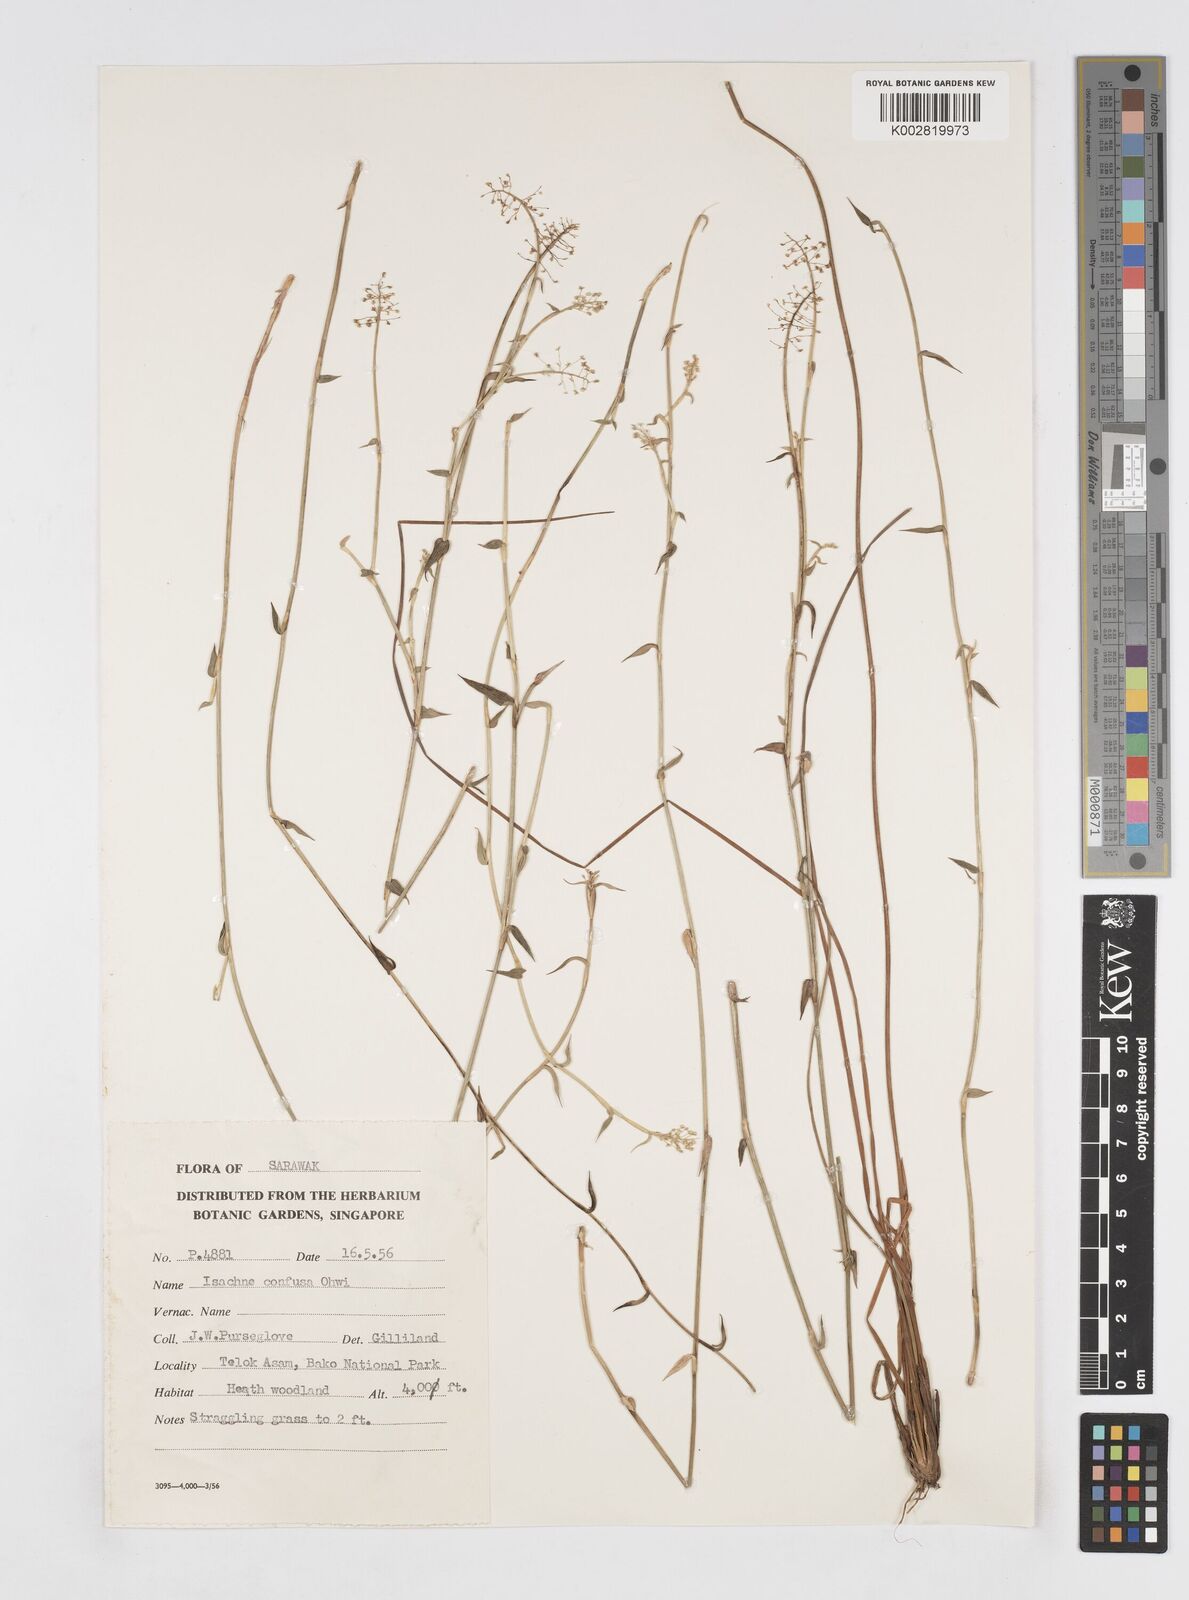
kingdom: Plantae
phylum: Tracheophyta
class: Liliopsida
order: Poales
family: Poaceae
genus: Isachne
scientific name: Isachne confusa
